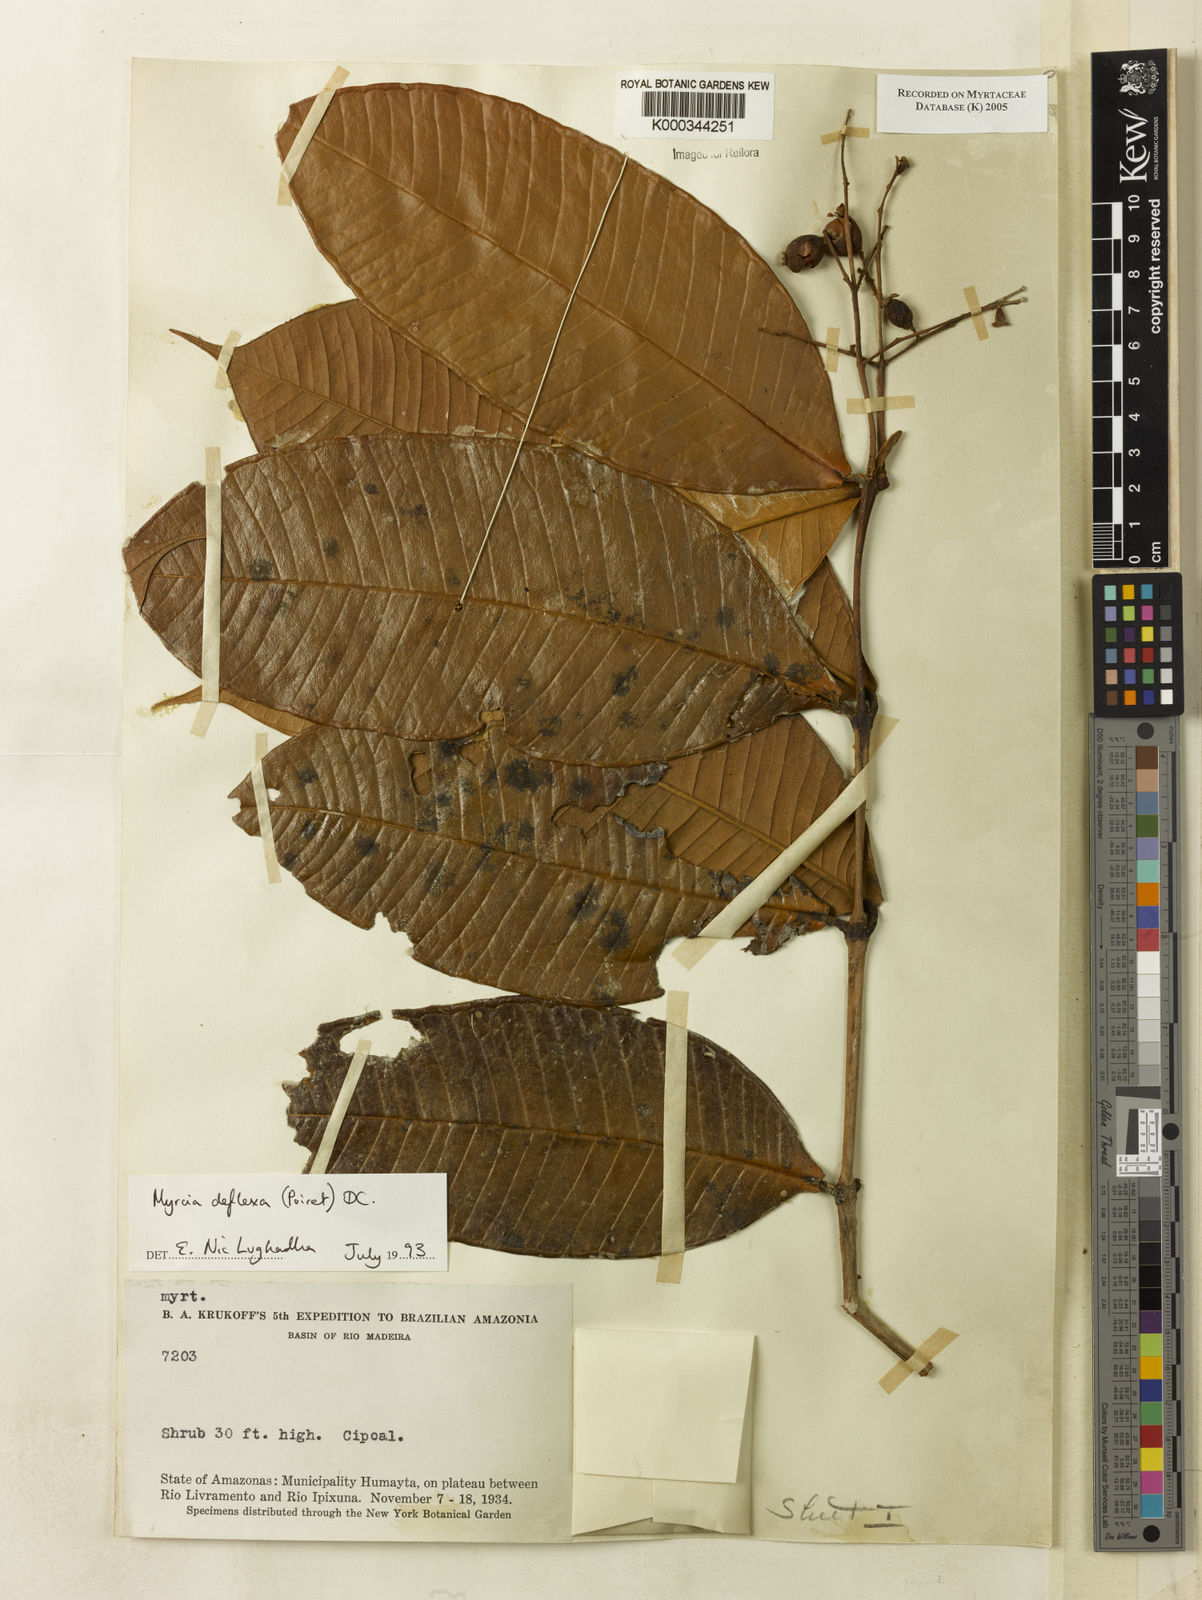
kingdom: Plantae
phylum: Tracheophyta
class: Magnoliopsida
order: Myrtales
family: Myrtaceae
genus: Myrcia
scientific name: Myrcia deflexa
